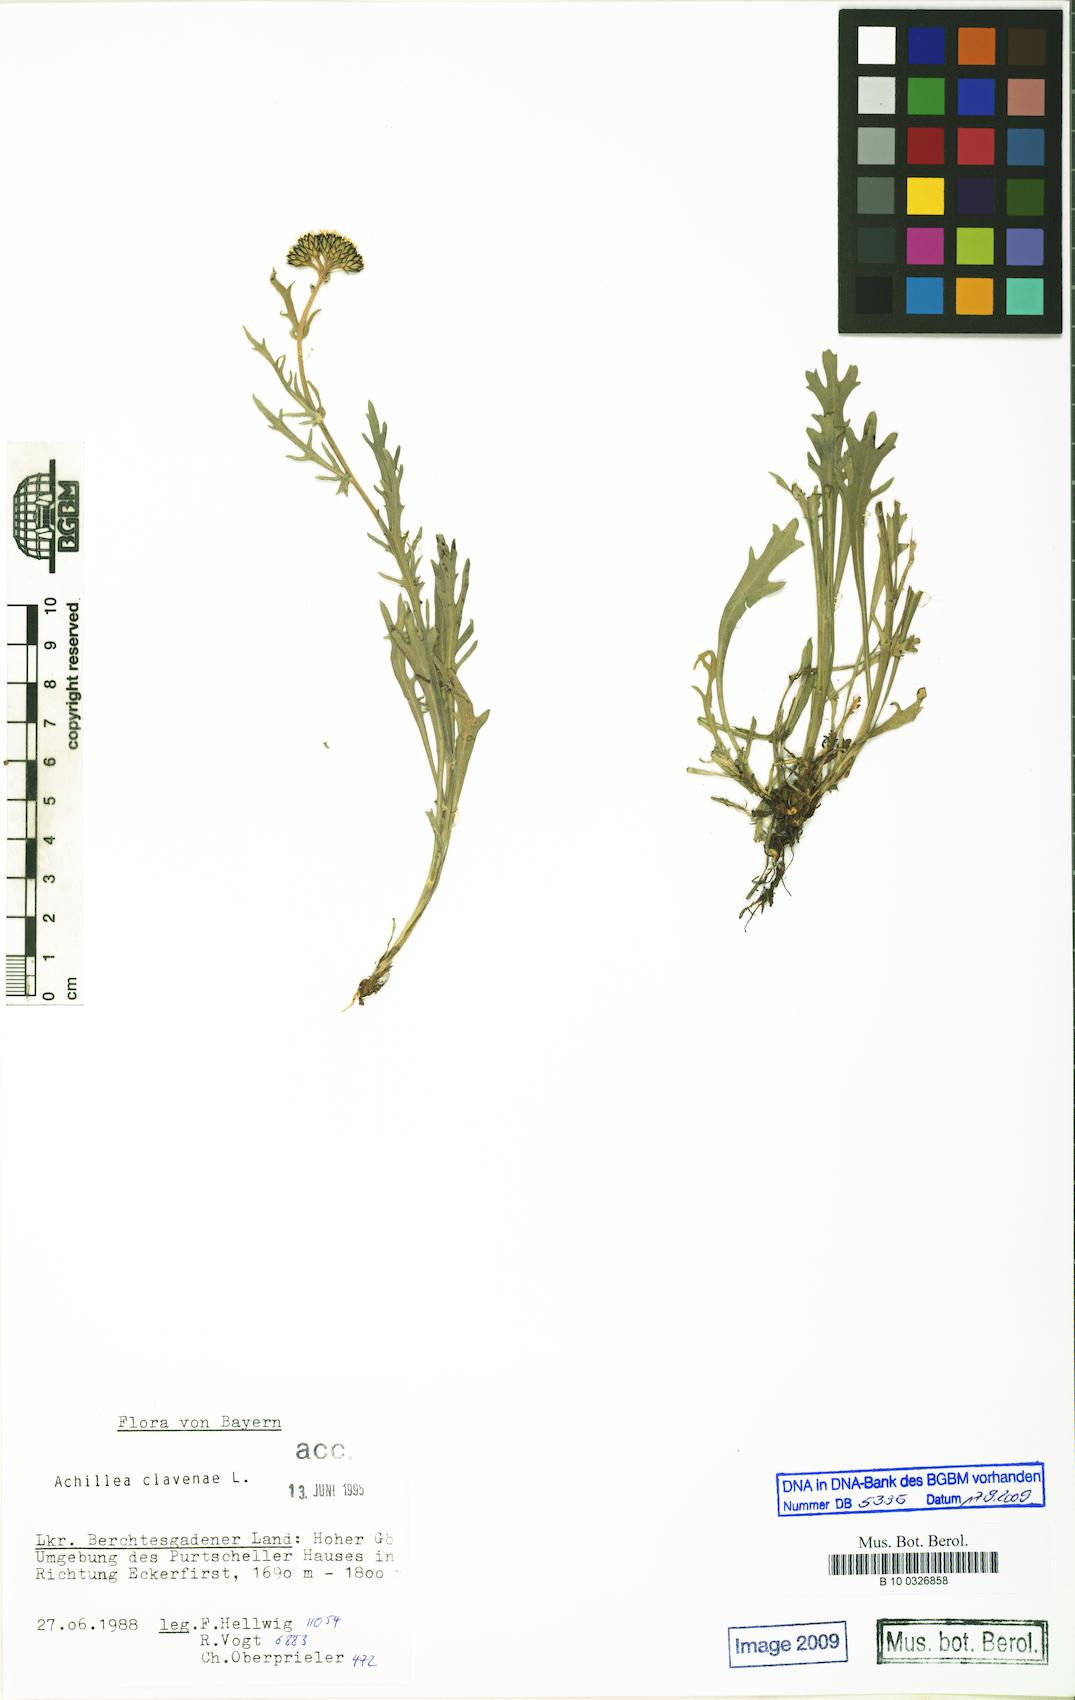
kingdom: Plantae
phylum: Tracheophyta
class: Magnoliopsida
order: Asterales
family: Asteraceae
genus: Achillea
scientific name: Achillea clavennae
